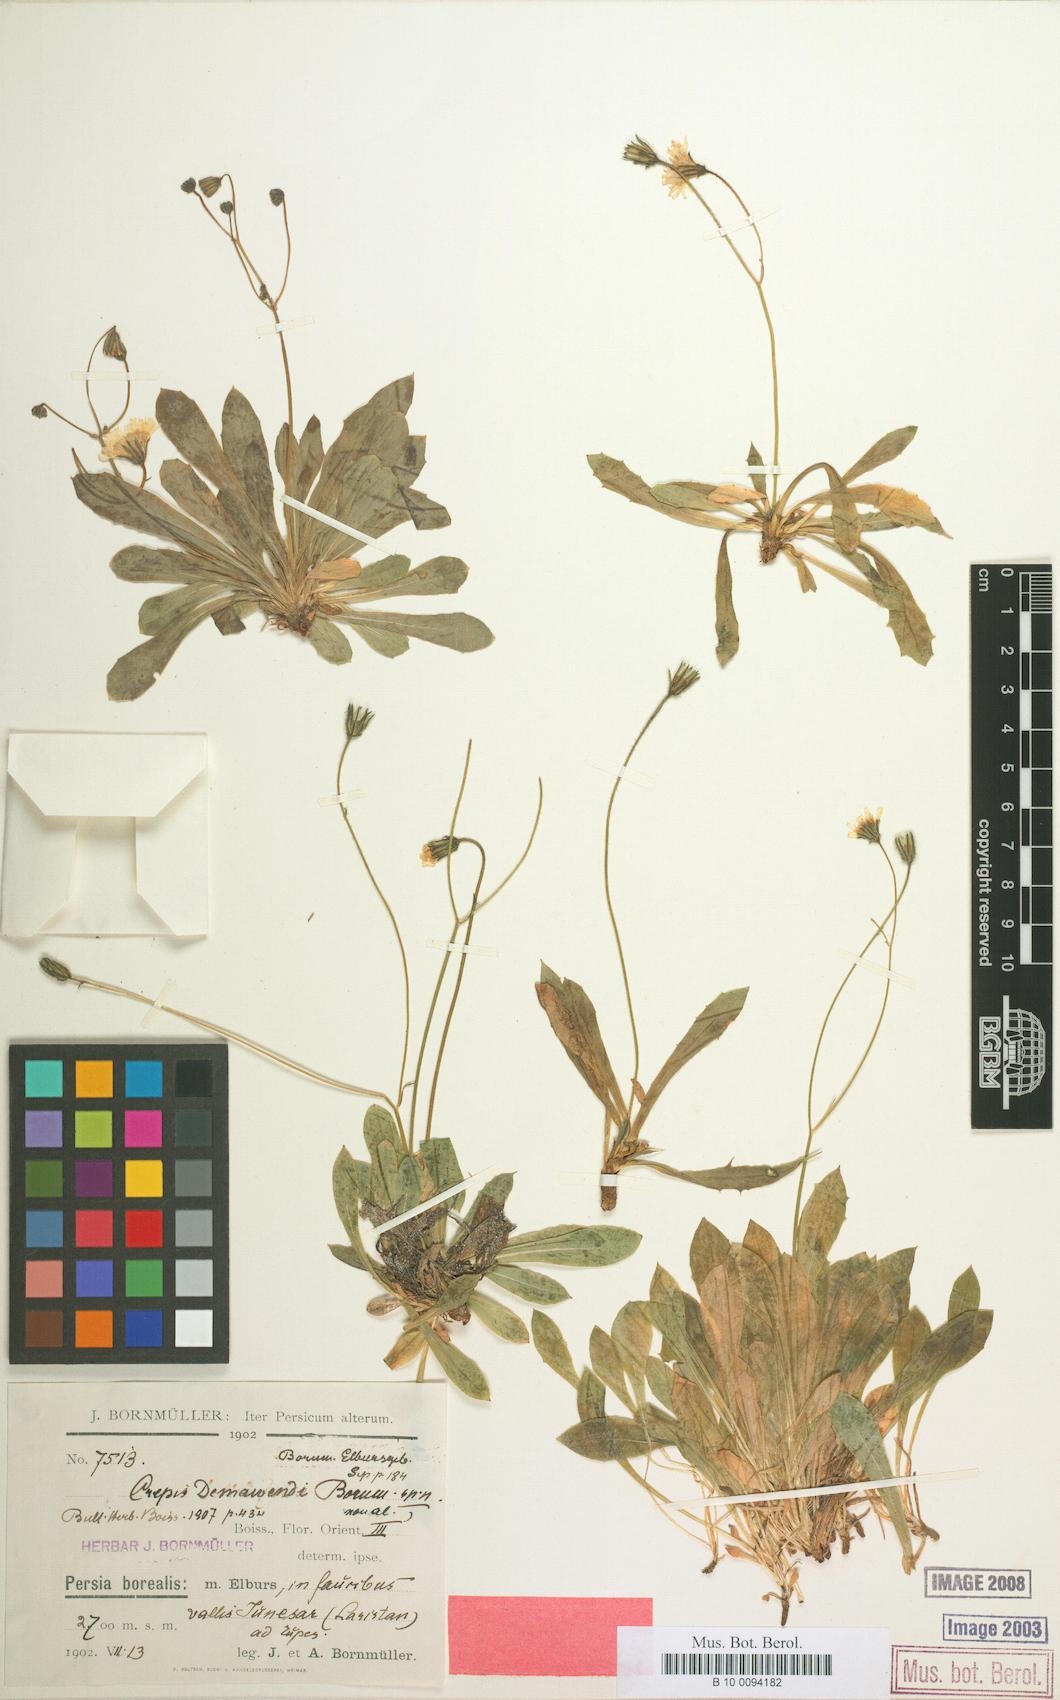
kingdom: Plantae
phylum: Tracheophyta
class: Magnoliopsida
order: Asterales
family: Asteraceae
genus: Crepis
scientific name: Crepis demavendi
